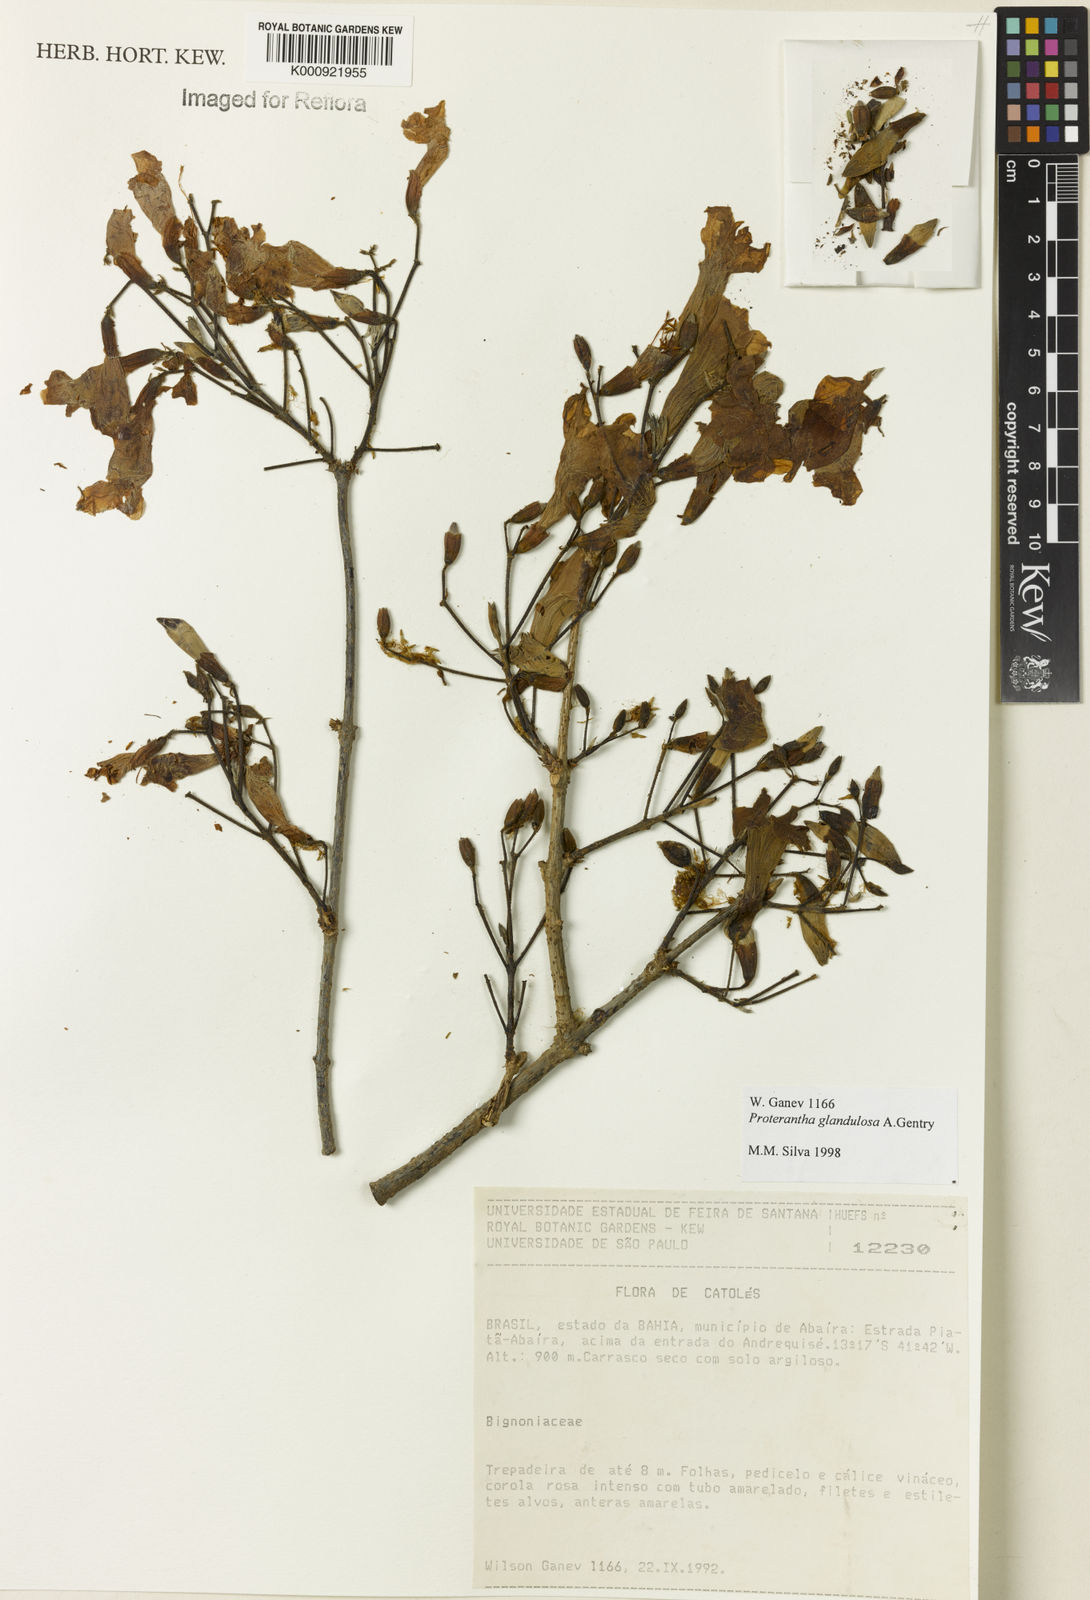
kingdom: Plantae
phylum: Tracheophyta
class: Magnoliopsida
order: Lamiales
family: Bignoniaceae
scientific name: Bignoniaceae
